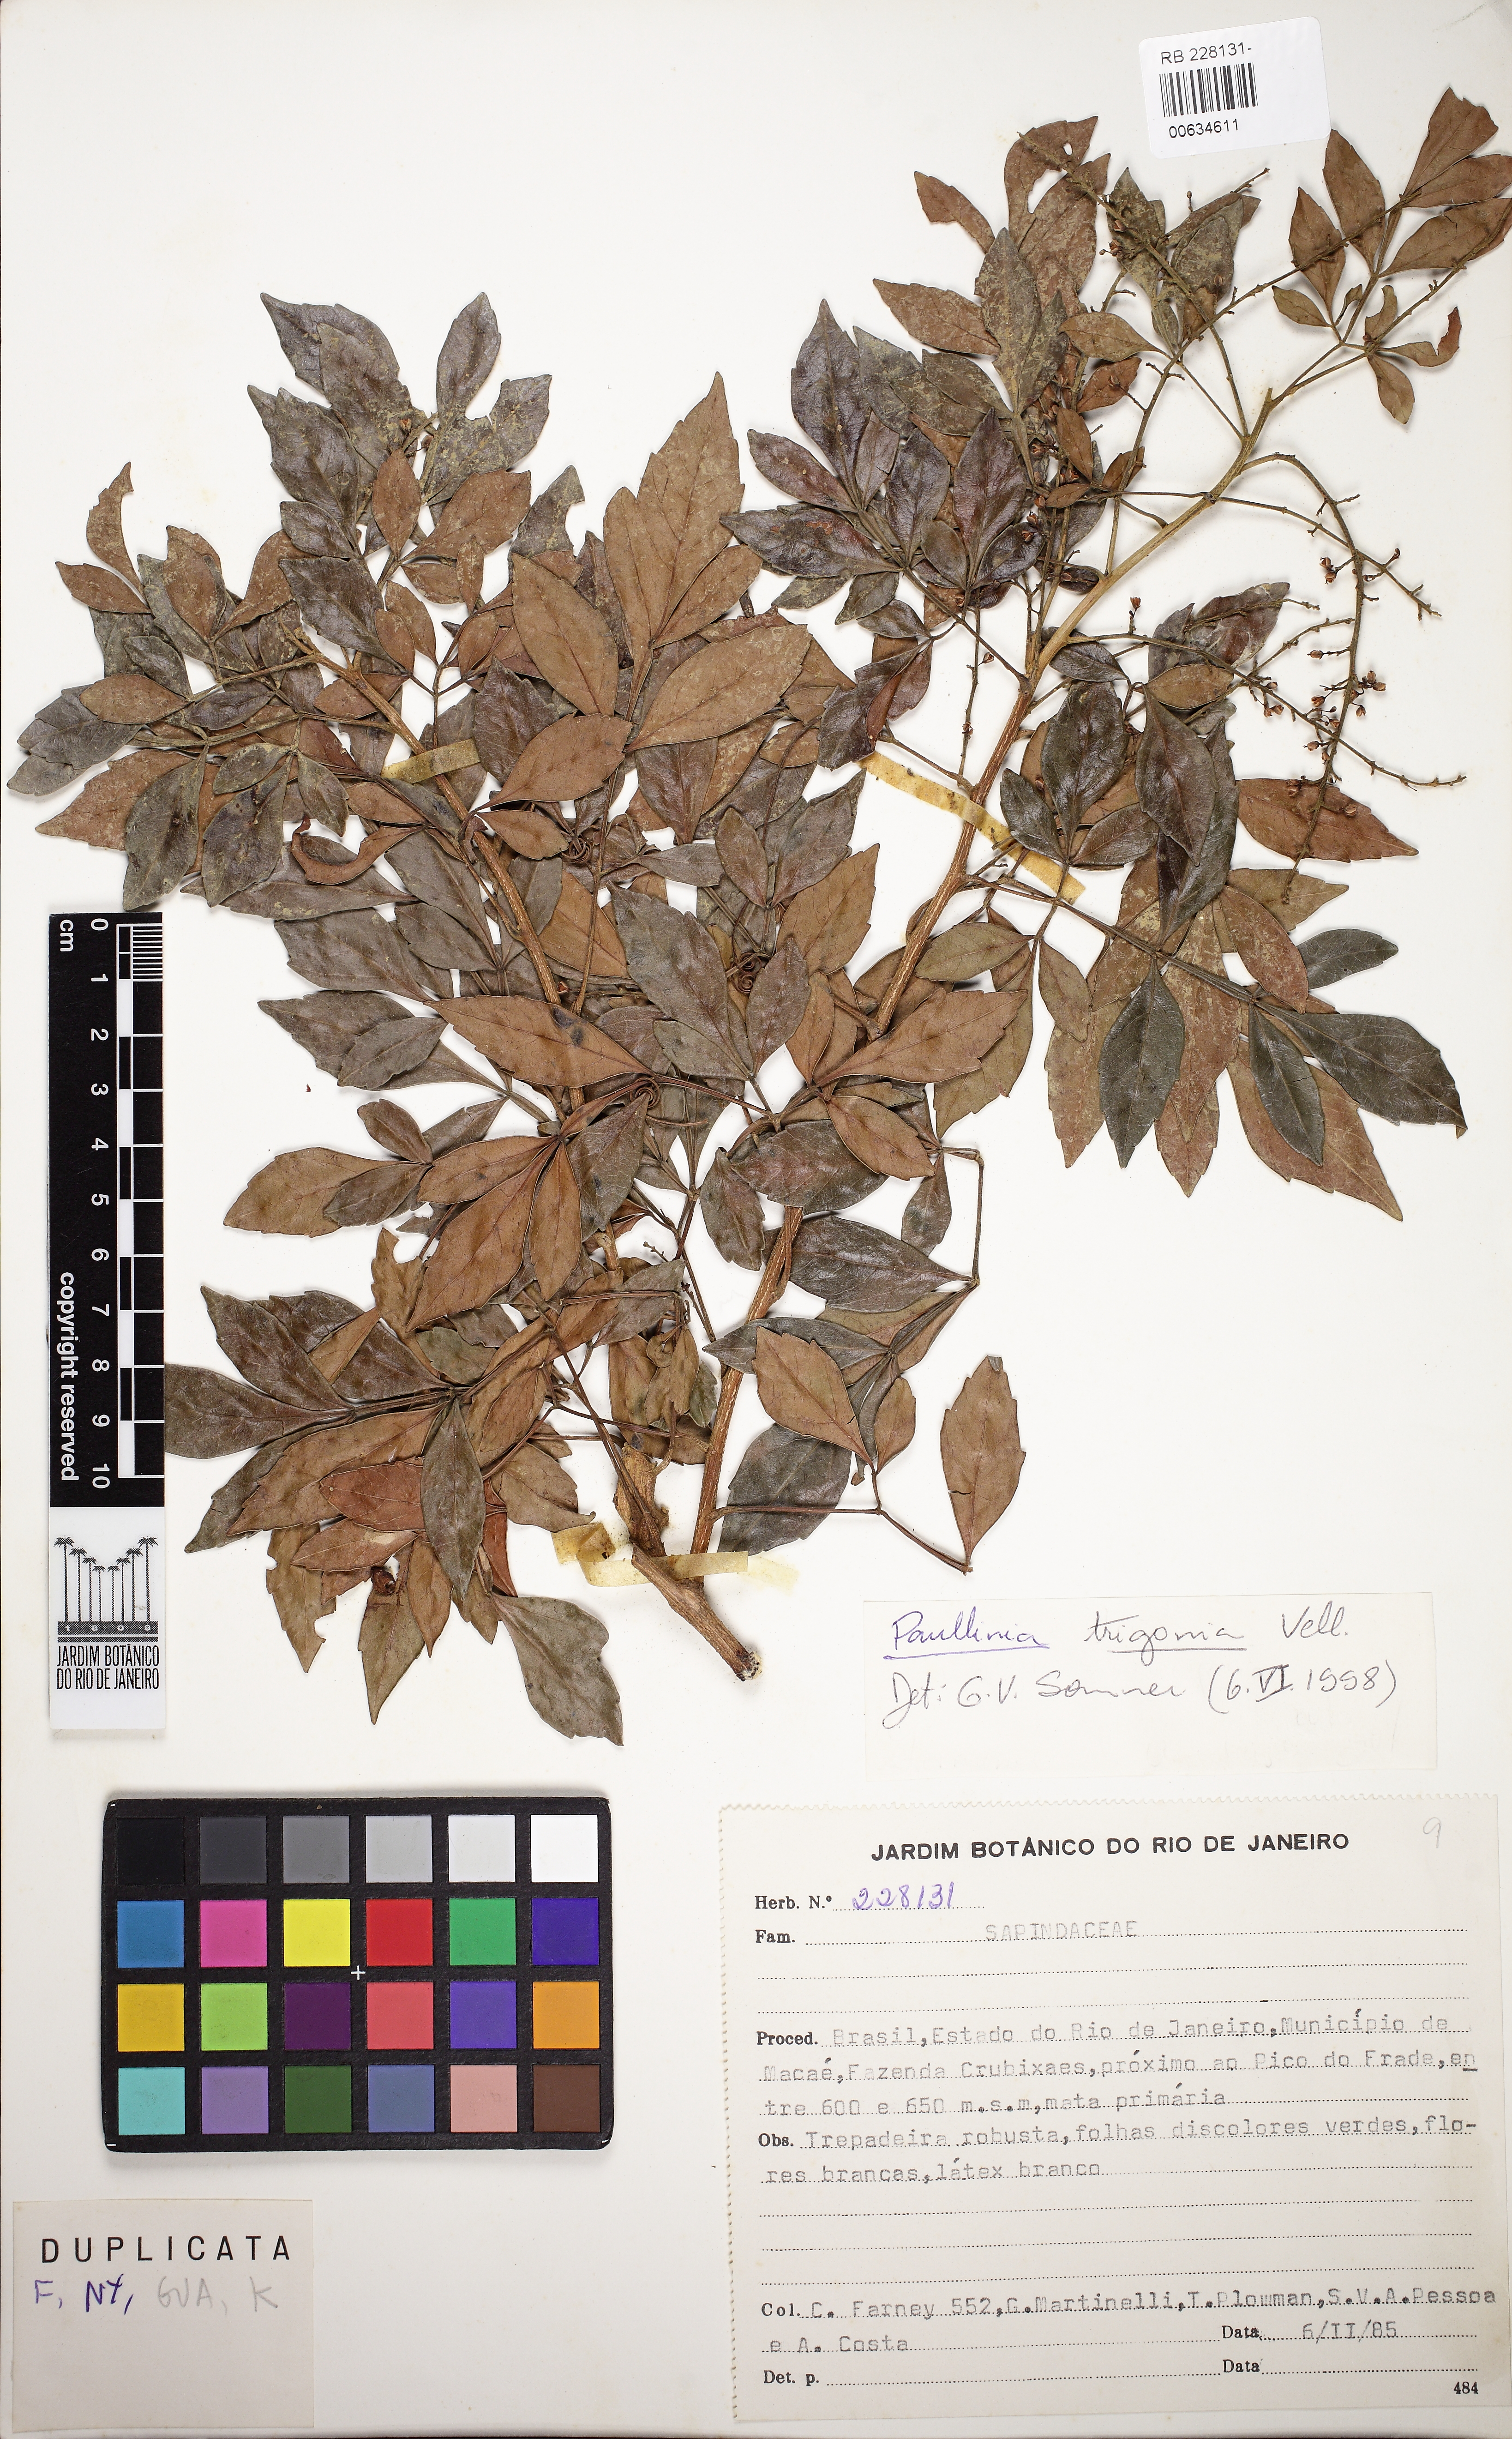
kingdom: Plantae
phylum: Tracheophyta
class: Magnoliopsida
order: Sapindales
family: Sapindaceae
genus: Paullinia
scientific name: Paullinia trigonia
